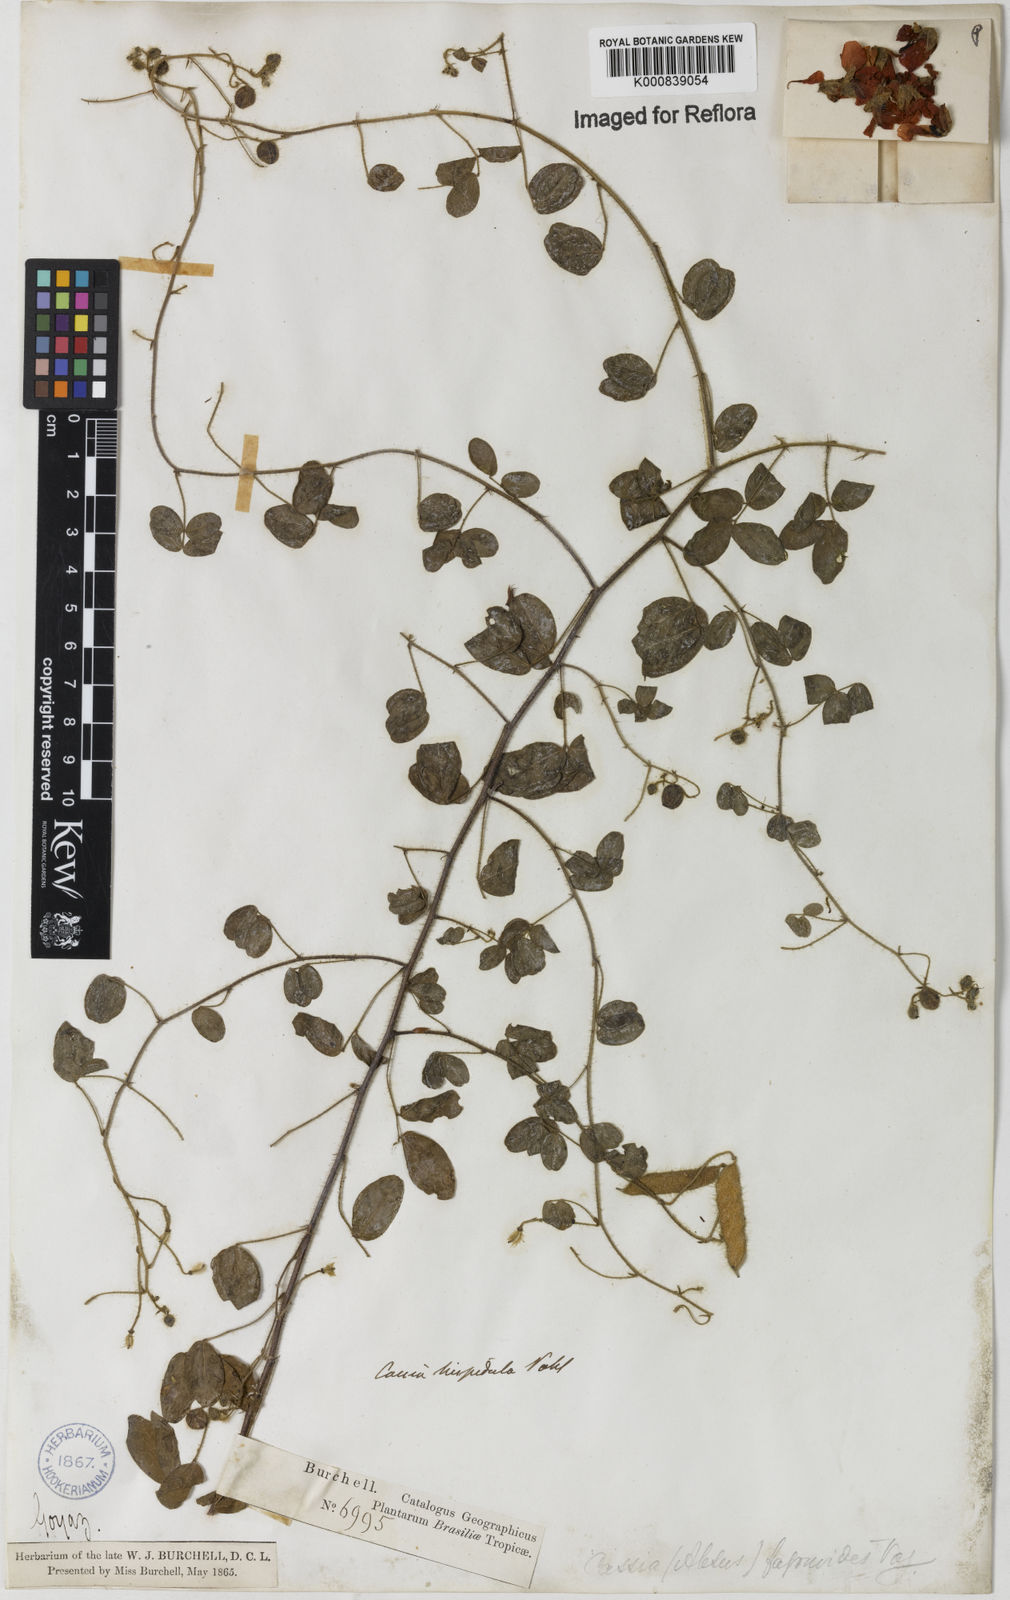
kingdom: Plantae
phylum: Tracheophyta
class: Magnoliopsida
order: Fabales
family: Fabaceae
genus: Chamaecrista
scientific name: Chamaecrista hispidula
